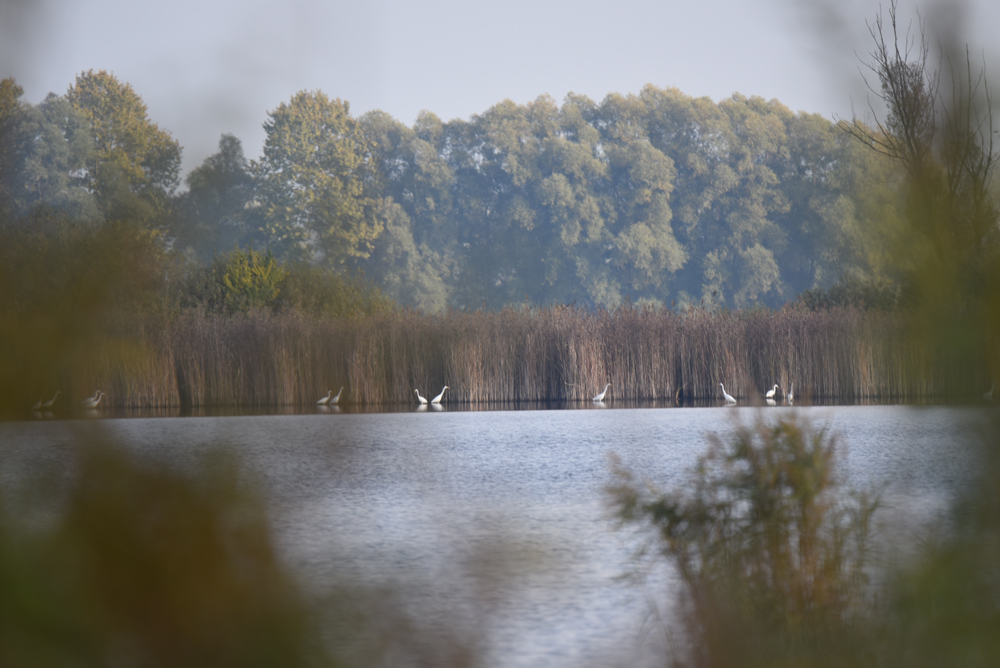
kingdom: Animalia
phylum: Chordata
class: Aves
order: Pelecaniformes
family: Ardeidae
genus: Ardea
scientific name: Ardea alba
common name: Great egret
